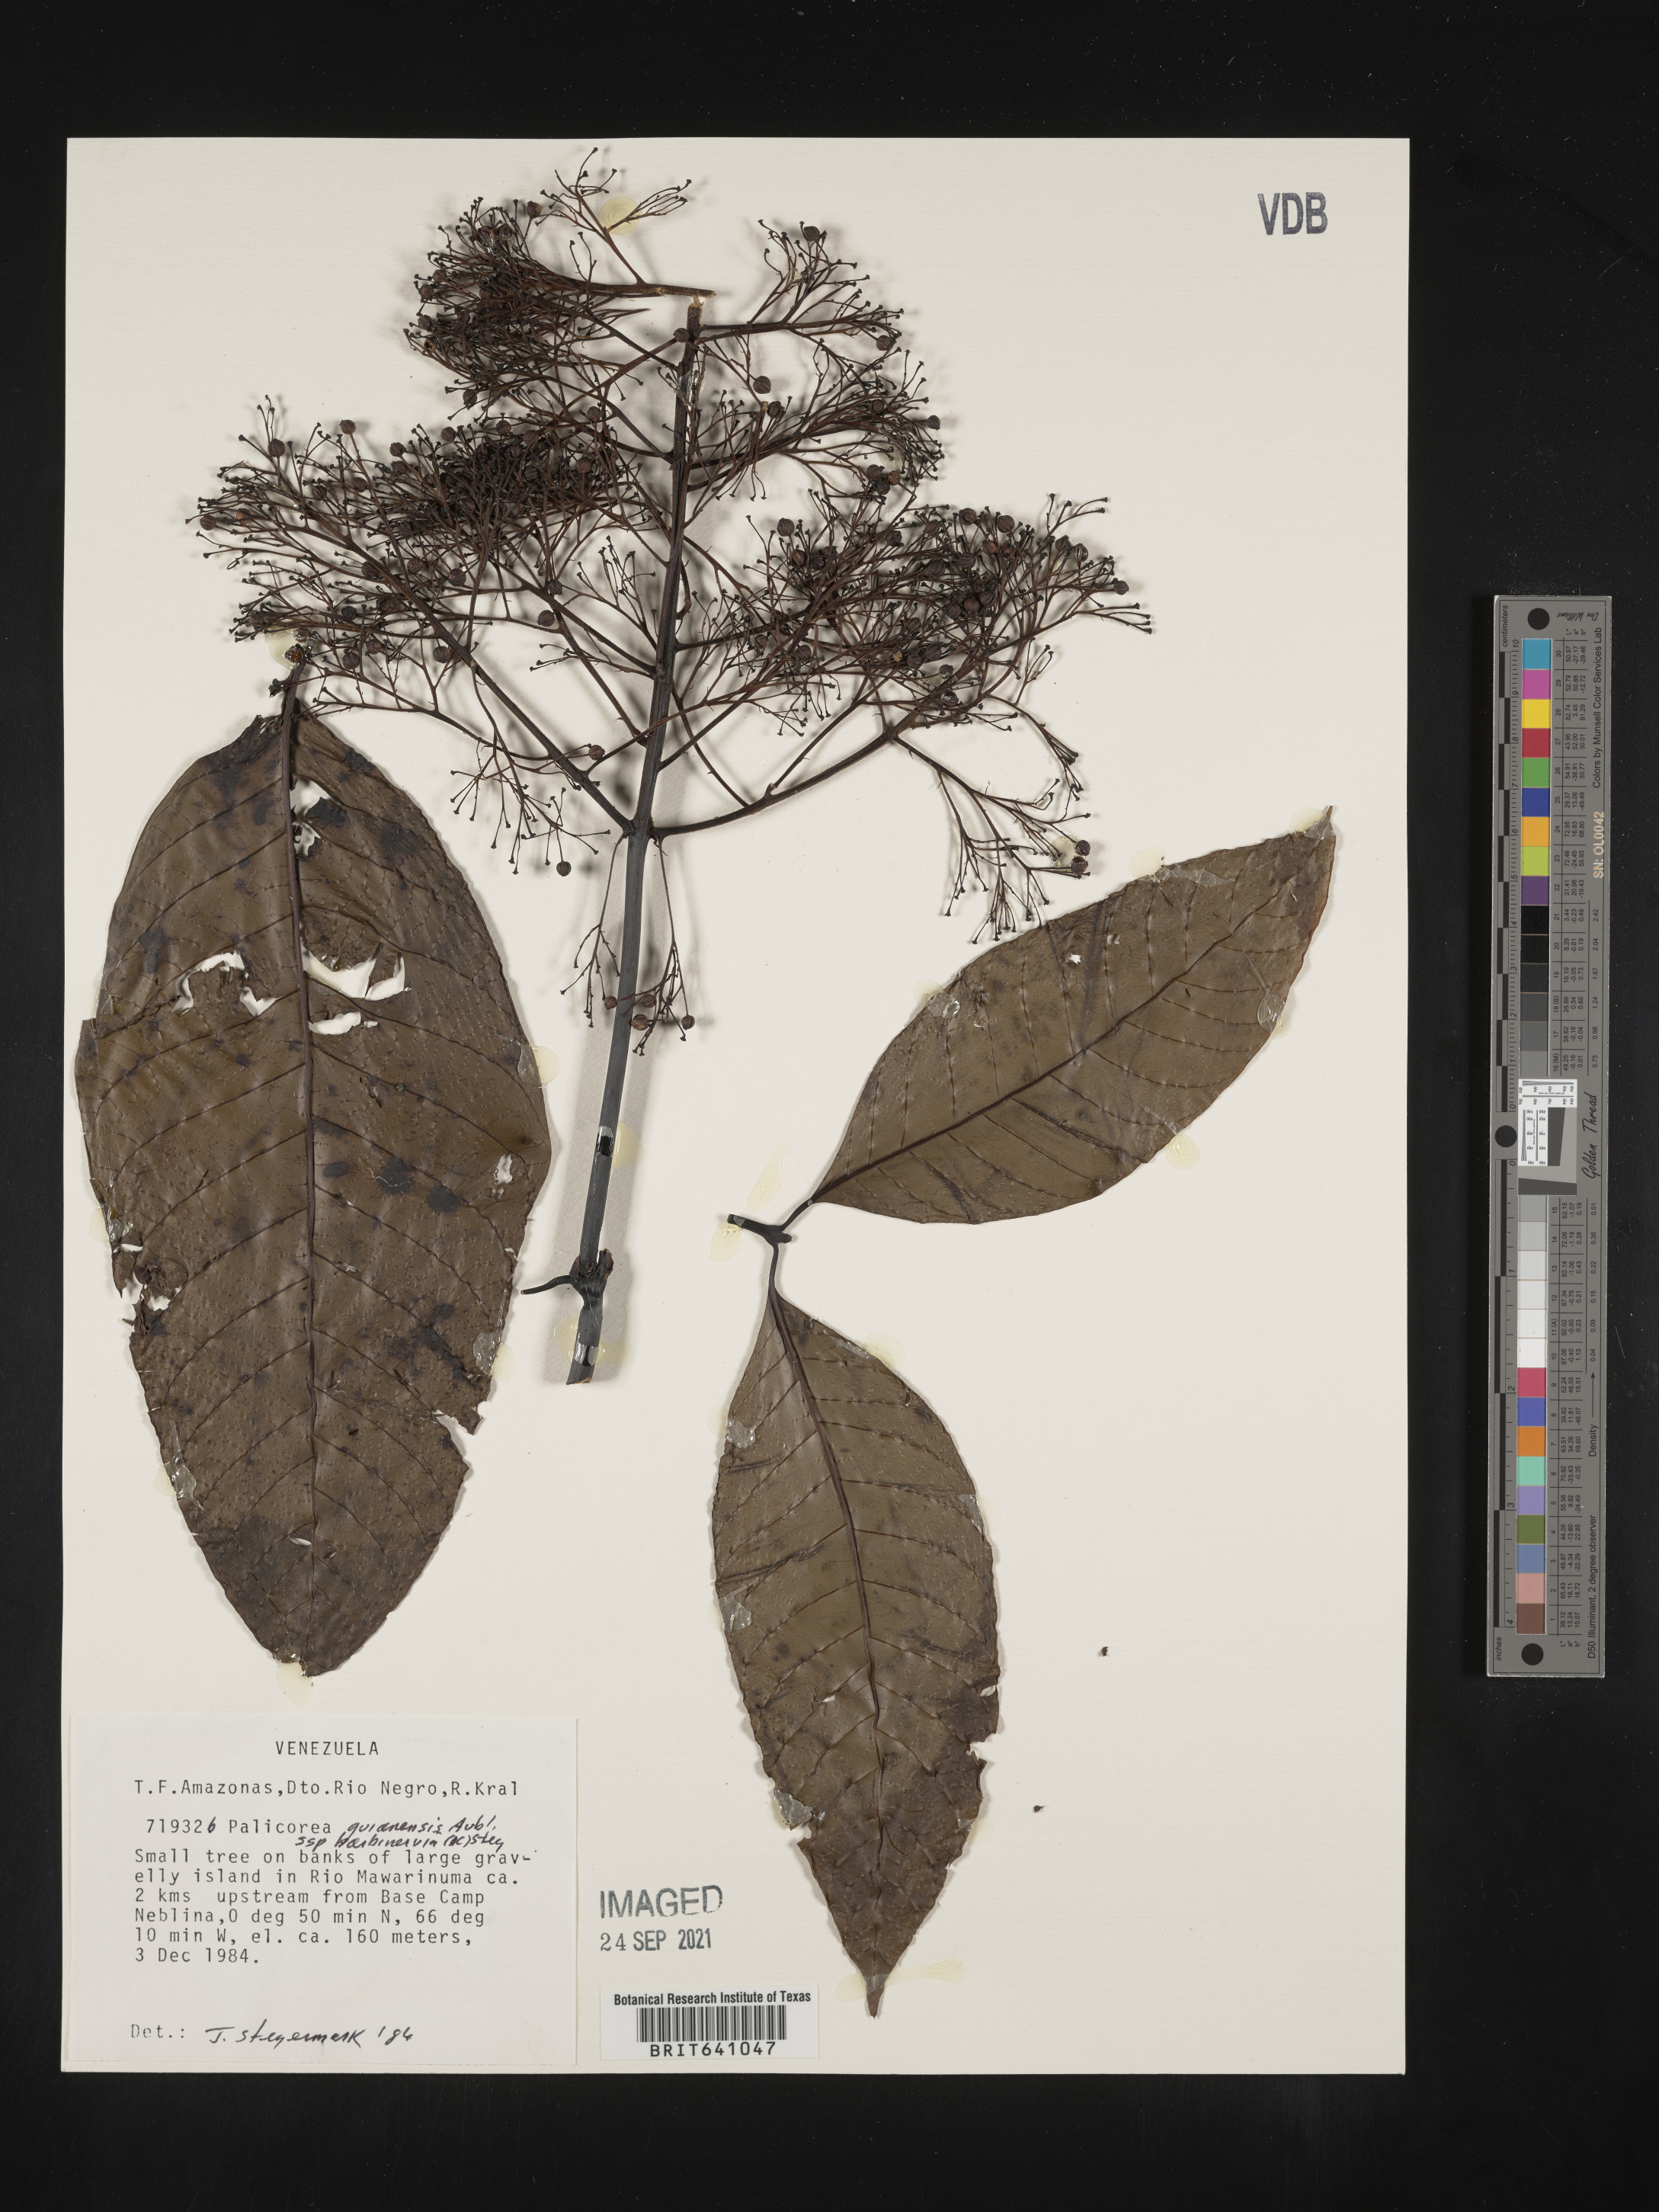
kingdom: Plantae
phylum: Tracheophyta
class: Magnoliopsida
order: Gentianales
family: Rubiaceae
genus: Palicourea
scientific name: Palicourea
